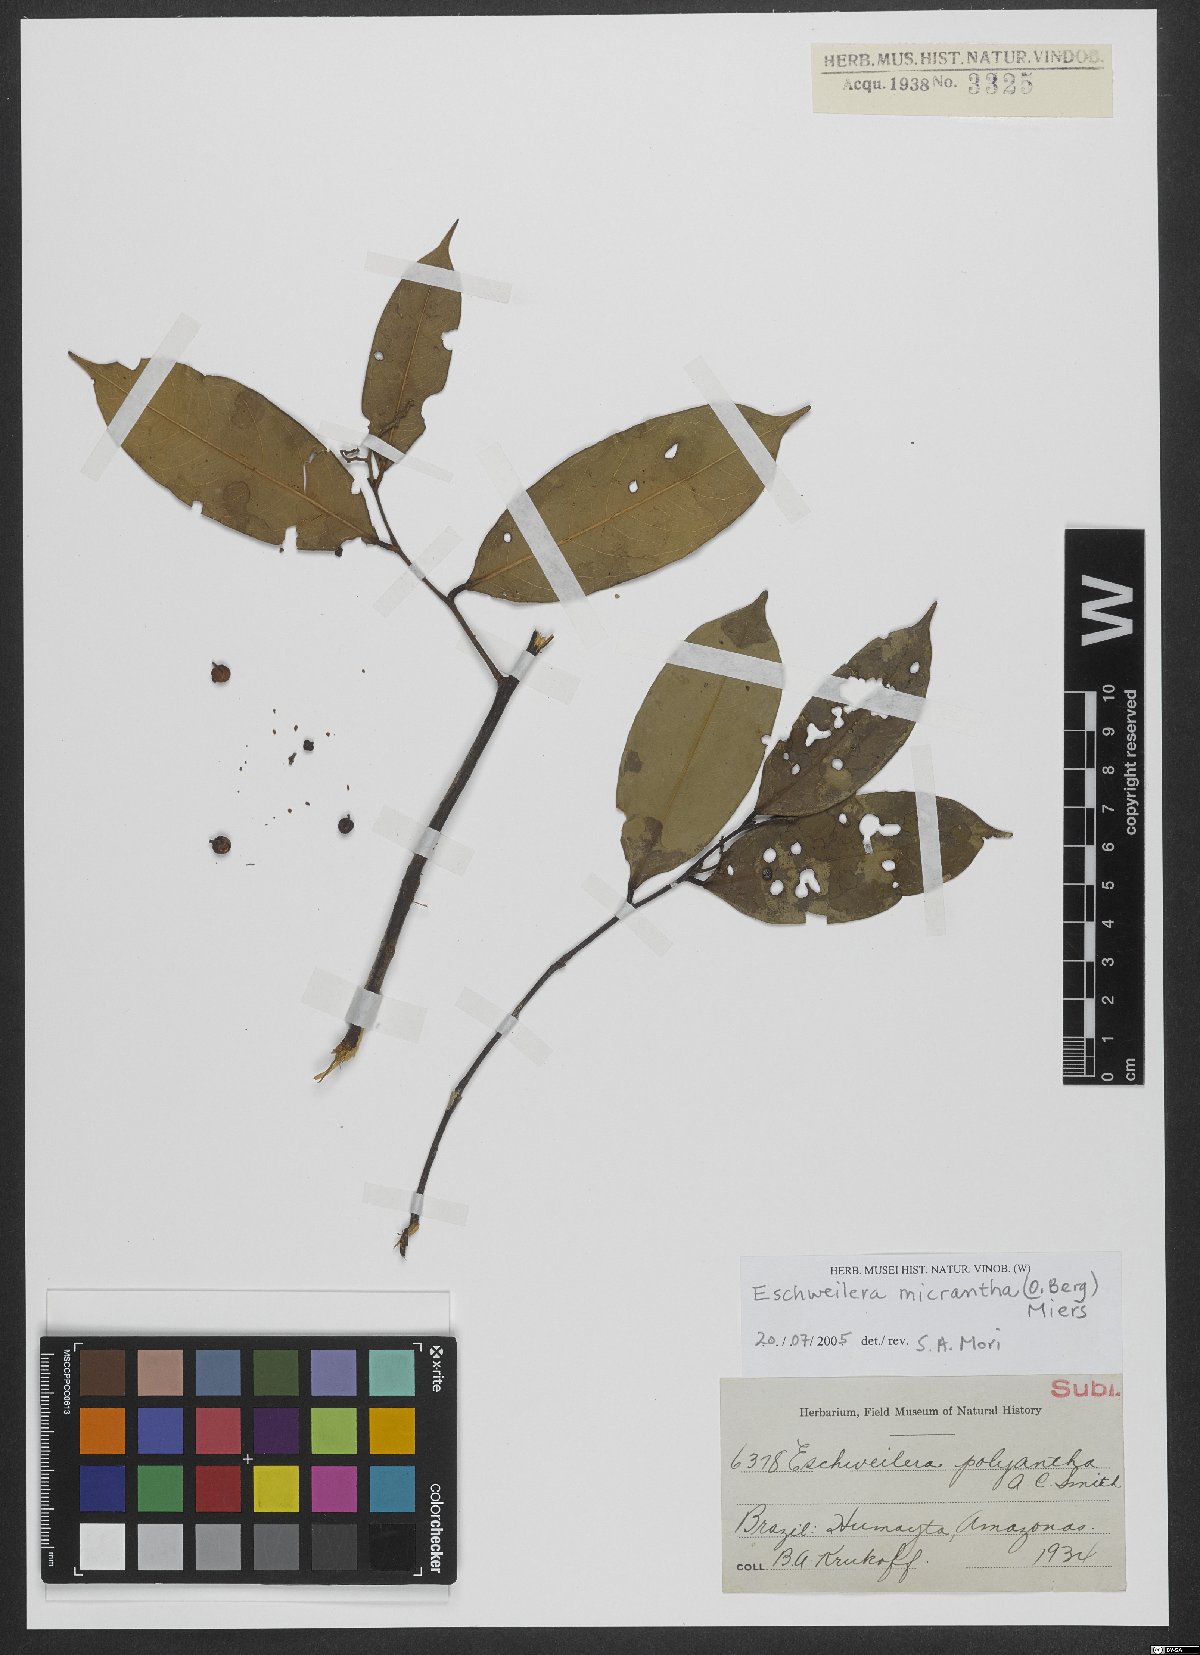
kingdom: Plantae
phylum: Tracheophyta
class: Magnoliopsida
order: Ericales
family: Lecythidaceae
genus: Eschweilera
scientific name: Eschweilera micrantha
